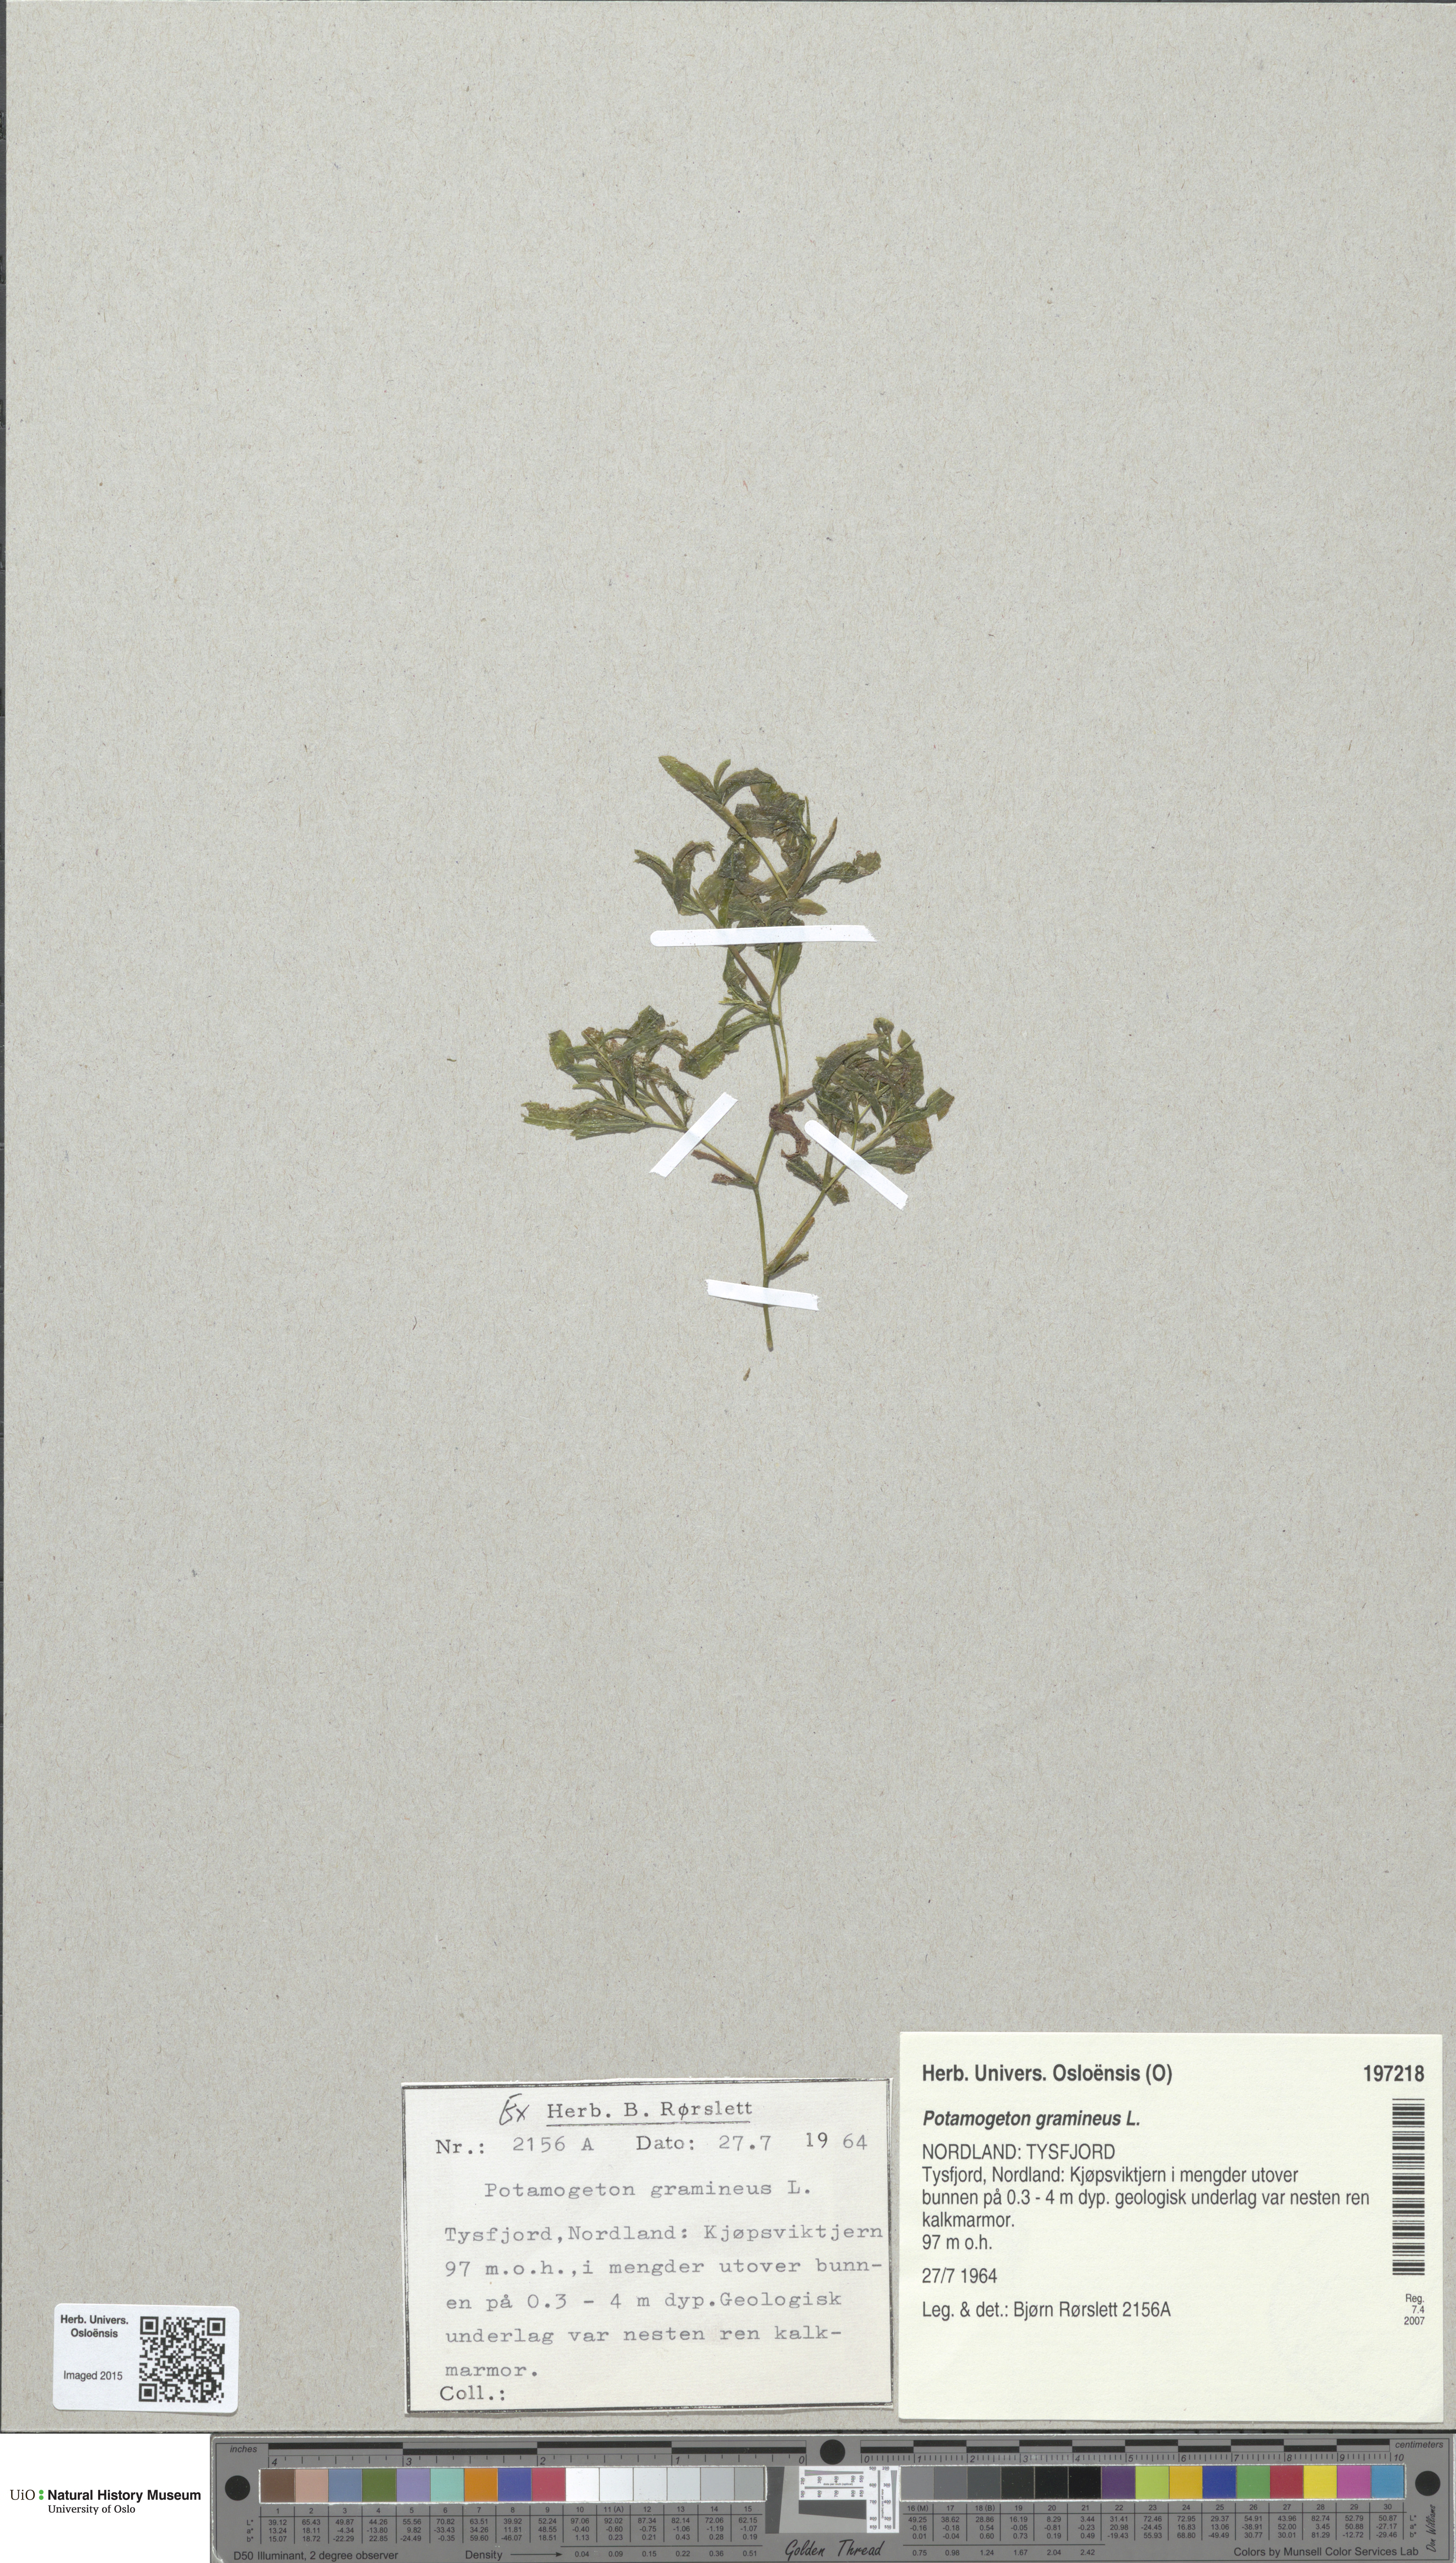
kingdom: Plantae
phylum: Tracheophyta
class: Liliopsida
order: Alismatales
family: Potamogetonaceae
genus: Potamogeton
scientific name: Potamogeton gramineus
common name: Various-leaved pondweed
